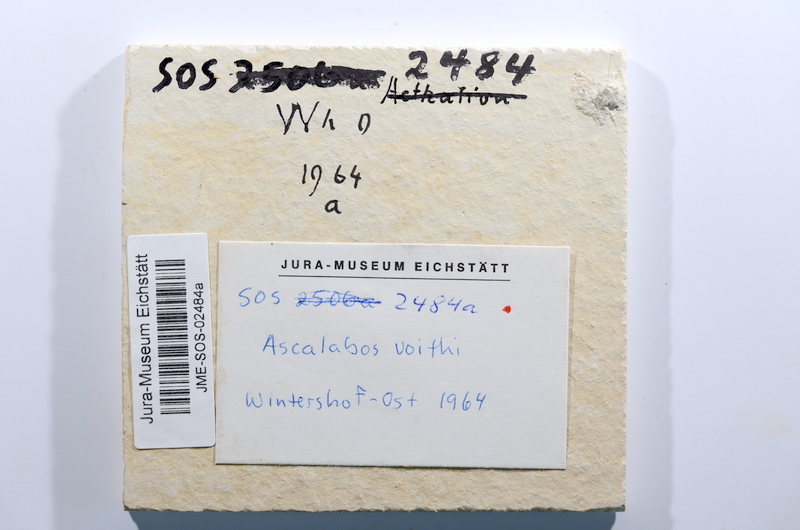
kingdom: Animalia
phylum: Chordata
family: Ascalaboidae
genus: Ascalabos
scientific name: Ascalabos voithii
